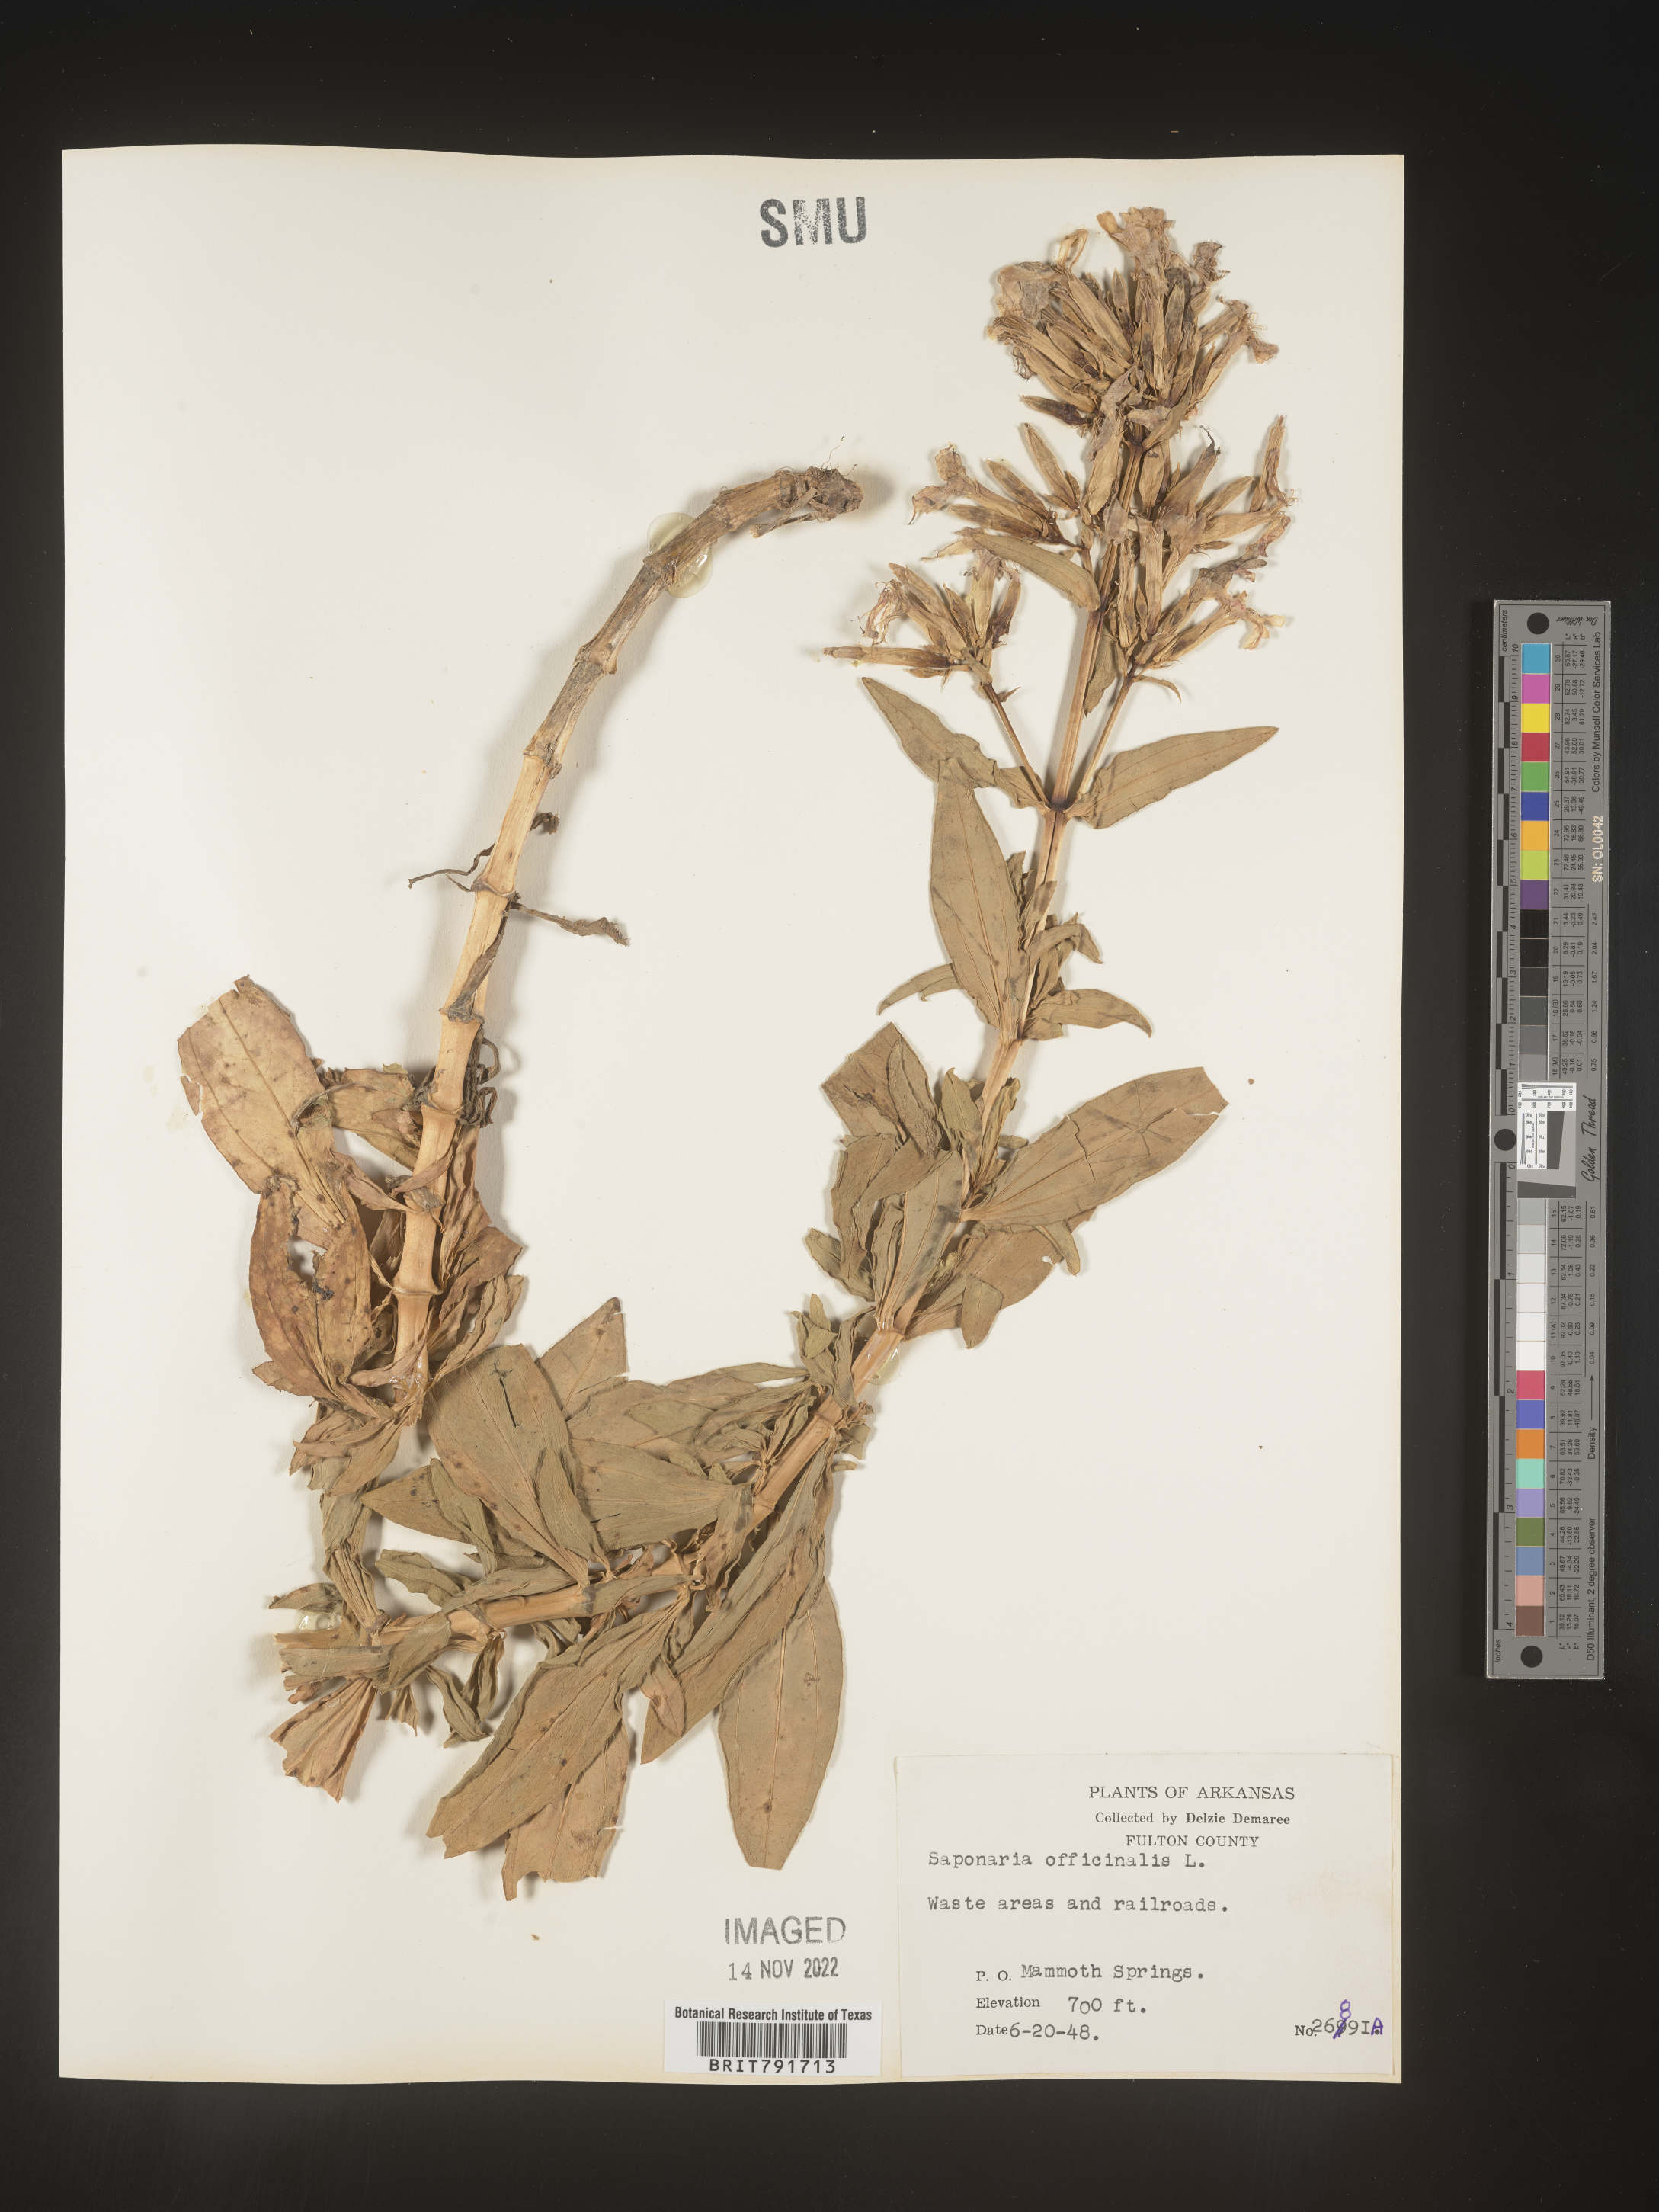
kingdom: Plantae
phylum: Tracheophyta
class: Magnoliopsida
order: Caryophyllales
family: Caryophyllaceae
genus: Saponaria
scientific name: Saponaria officinalis
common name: Soapwort
